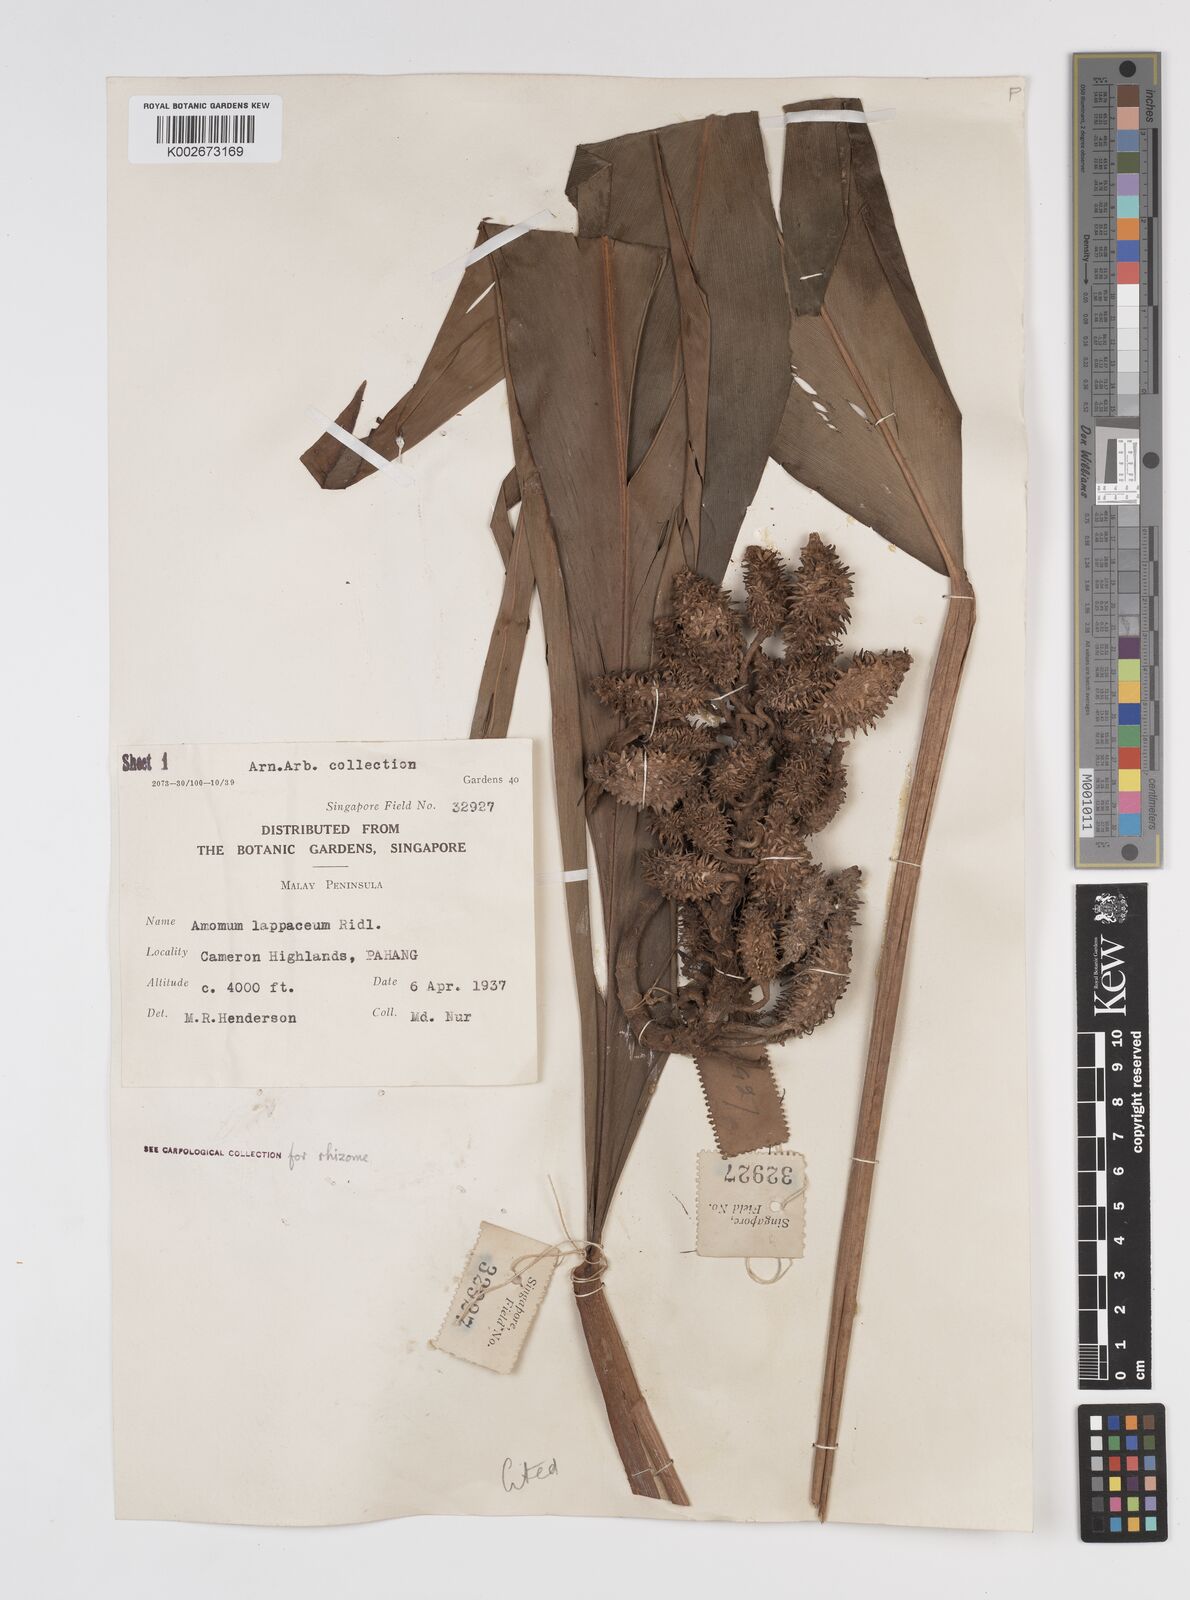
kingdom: Plantae
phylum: Tracheophyta
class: Liliopsida
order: Zingiberales
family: Zingiberaceae
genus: Meistera
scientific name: Meistera lappacea
